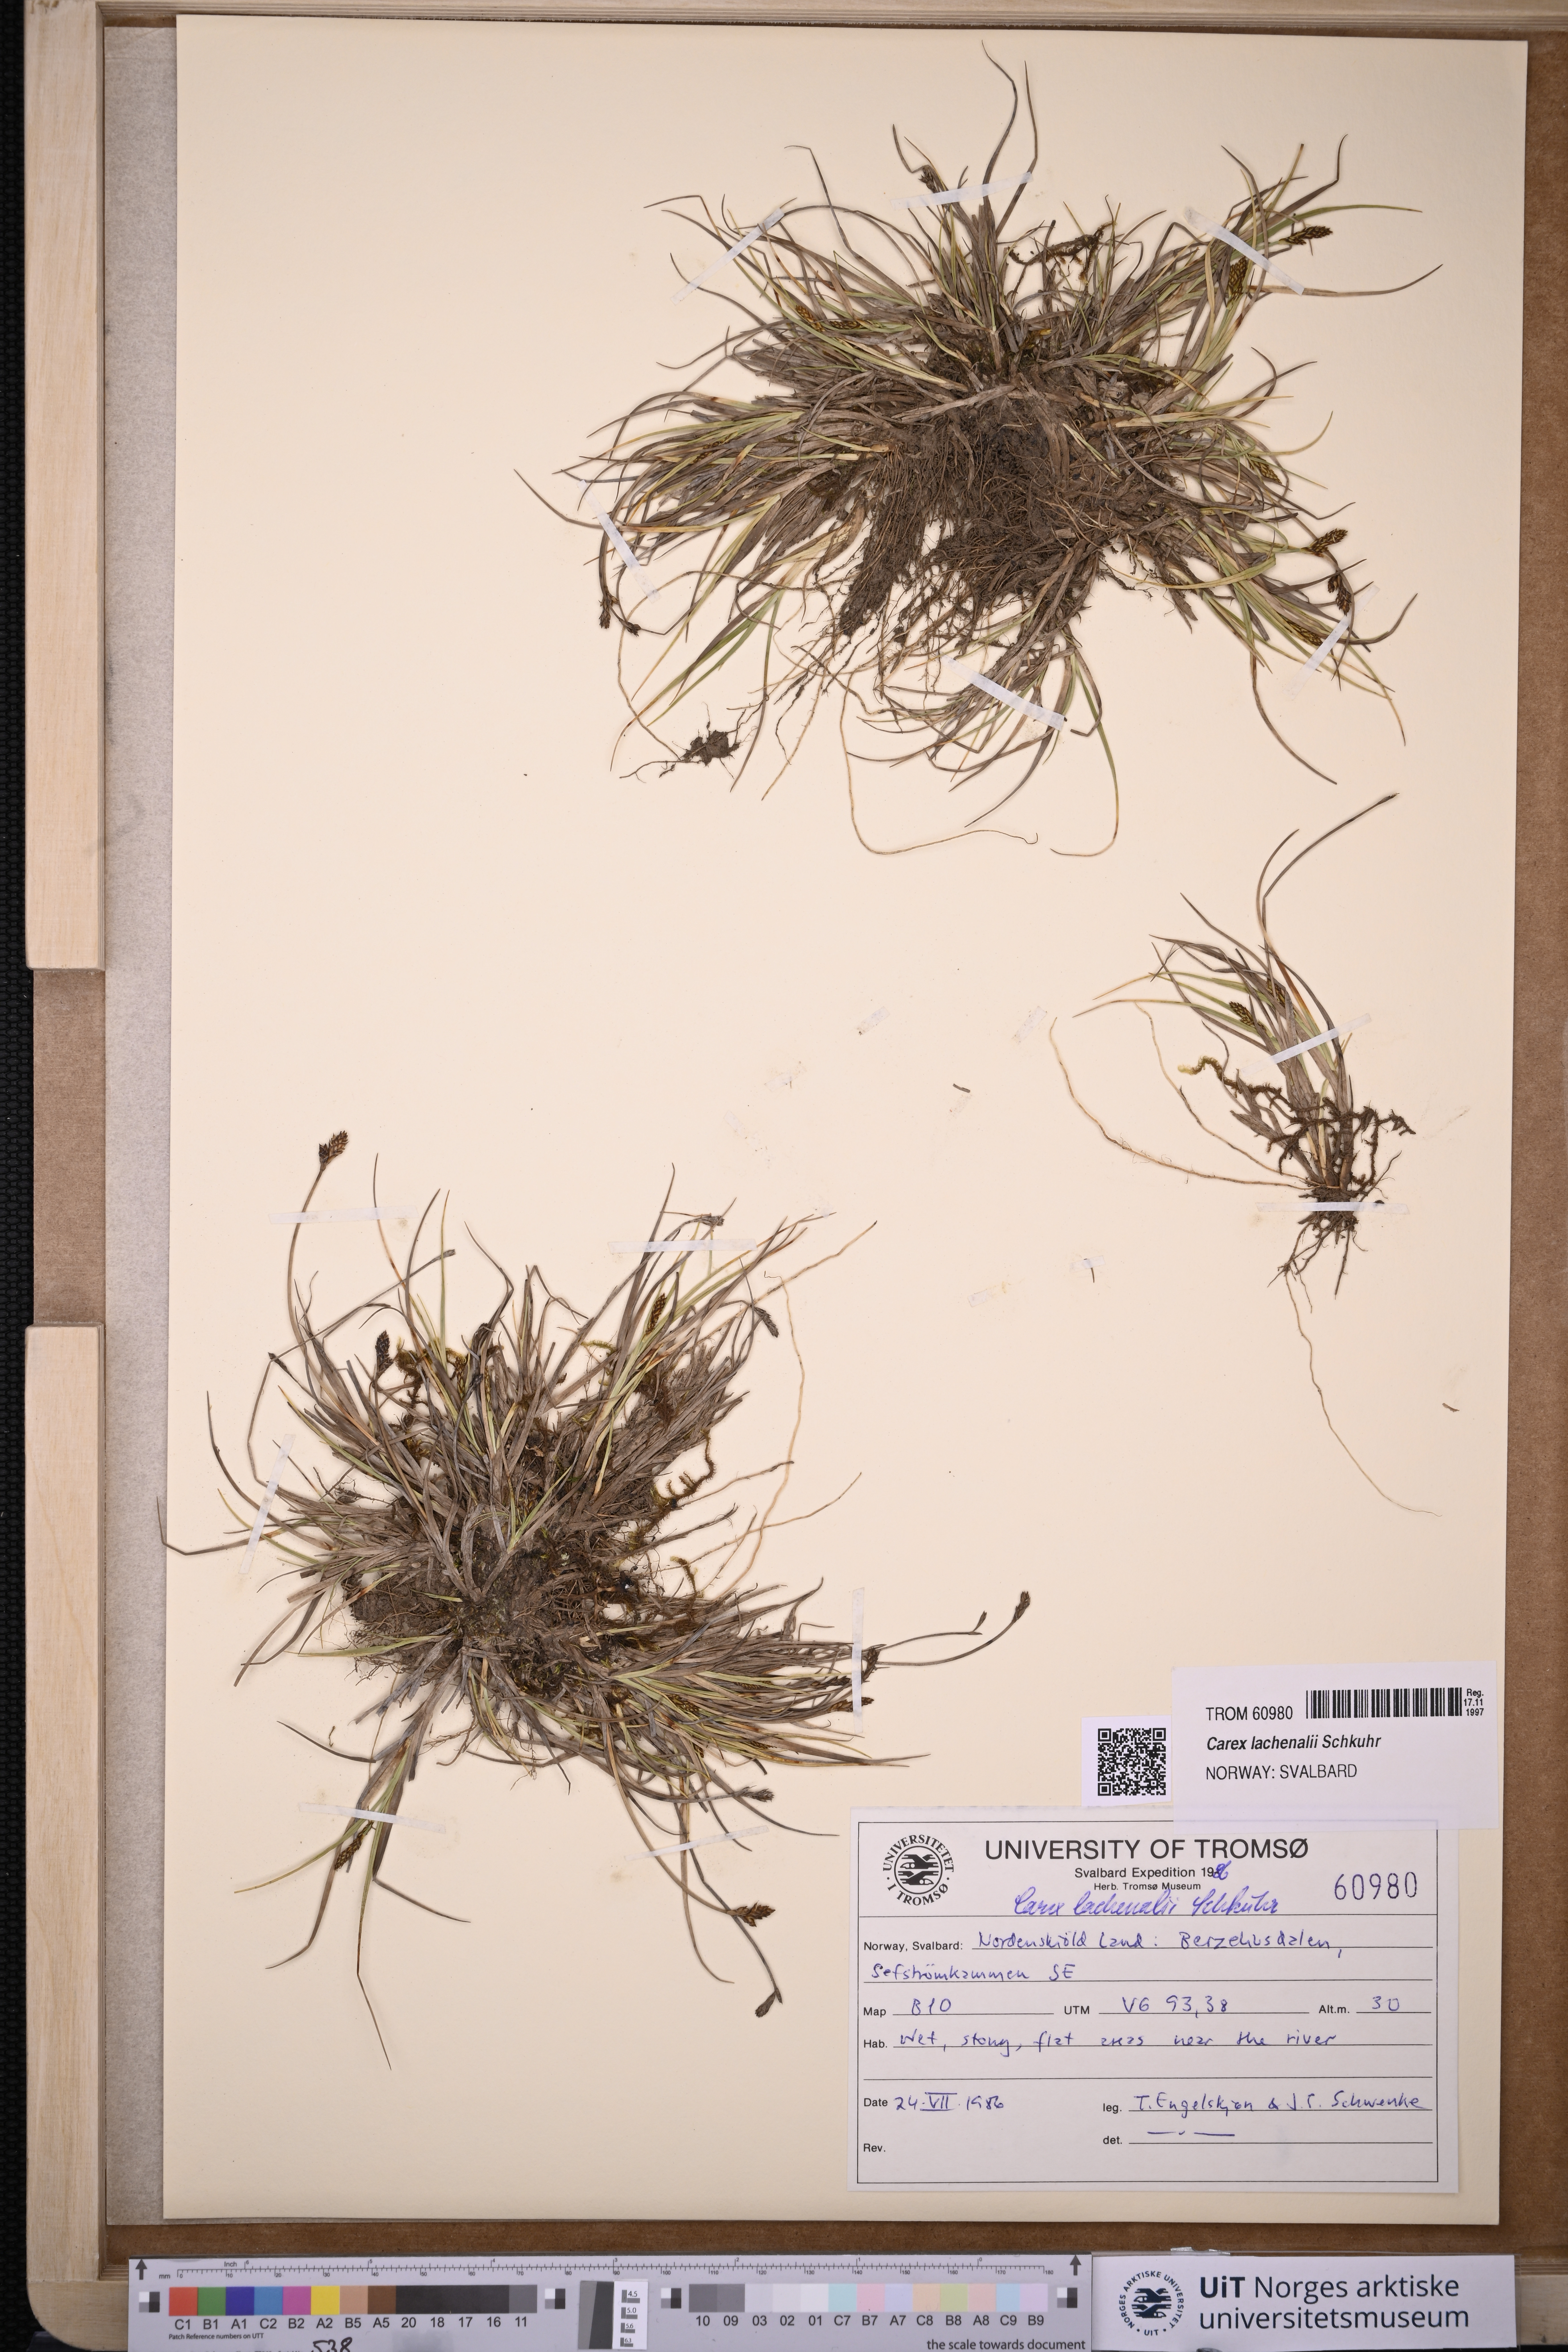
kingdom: Plantae
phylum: Tracheophyta
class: Liliopsida
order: Poales
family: Cyperaceae
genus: Carex
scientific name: Carex lachenalii
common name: Hare's-foot sedge
